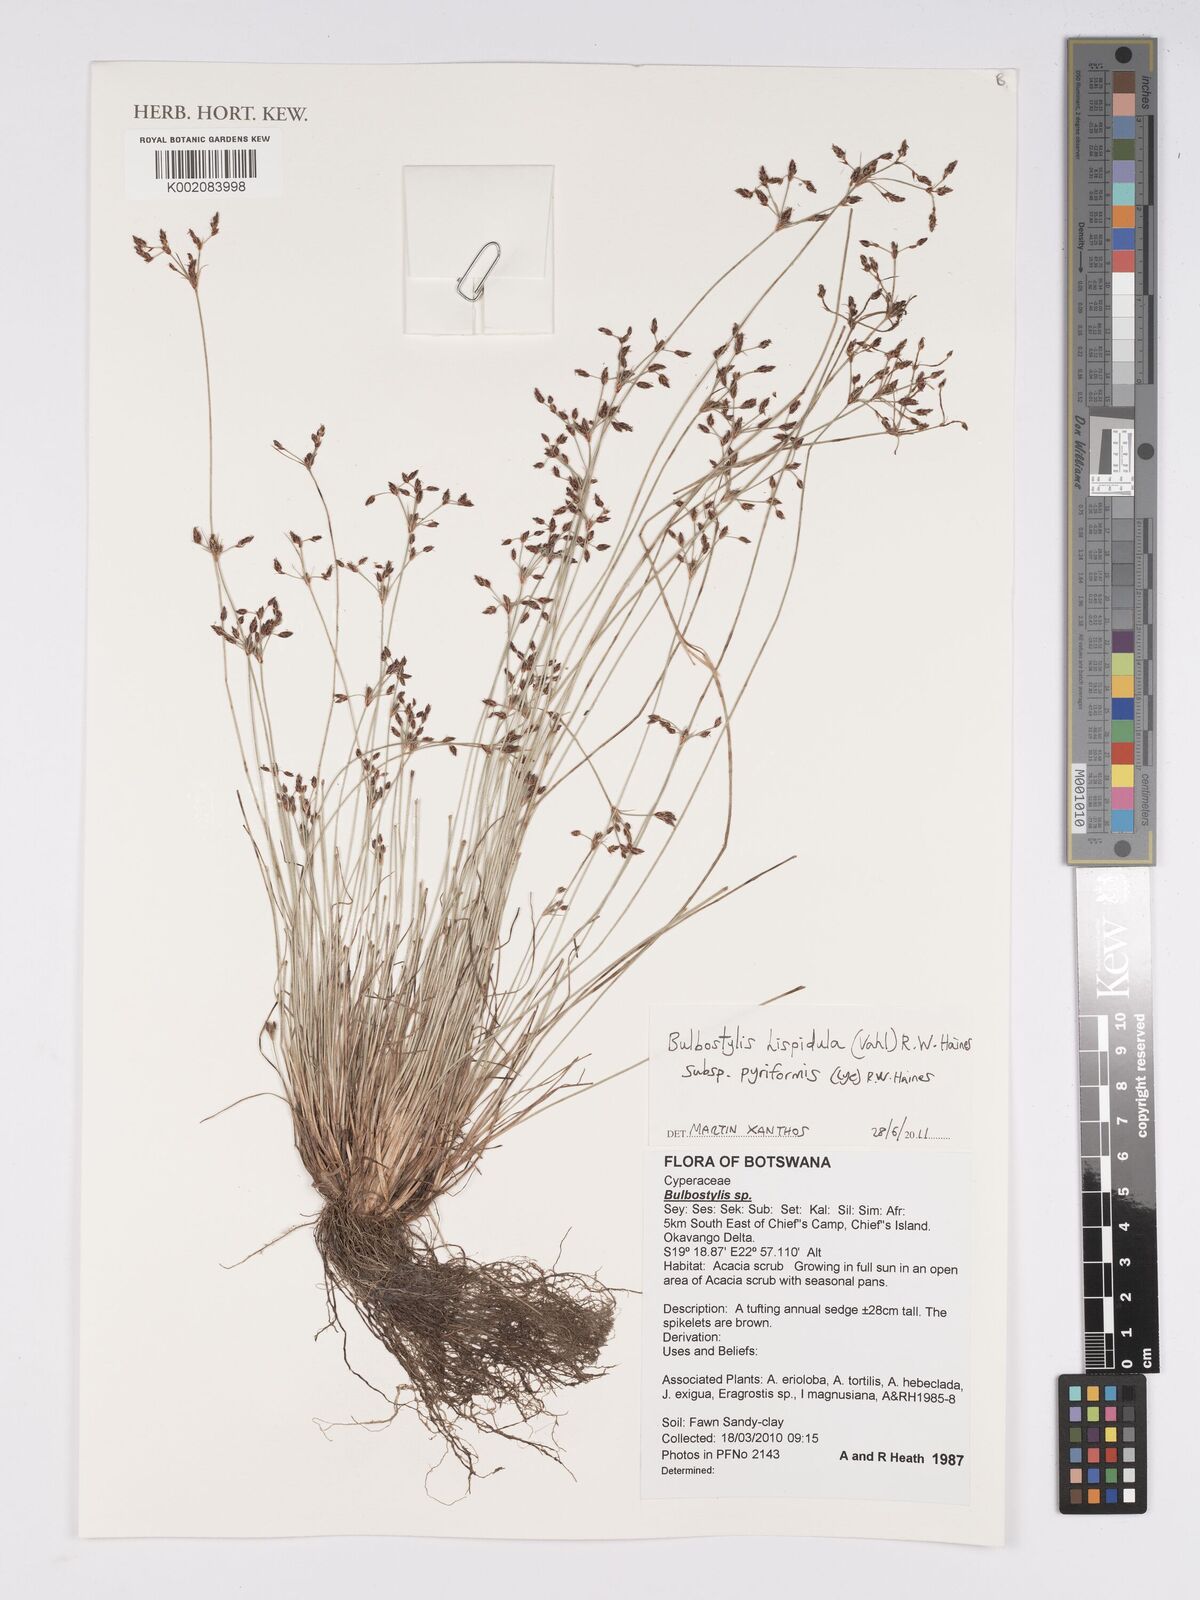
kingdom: Plantae
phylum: Tracheophyta
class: Liliopsida
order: Poales
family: Cyperaceae
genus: Bulbostylis
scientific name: Bulbostylis hispidula
